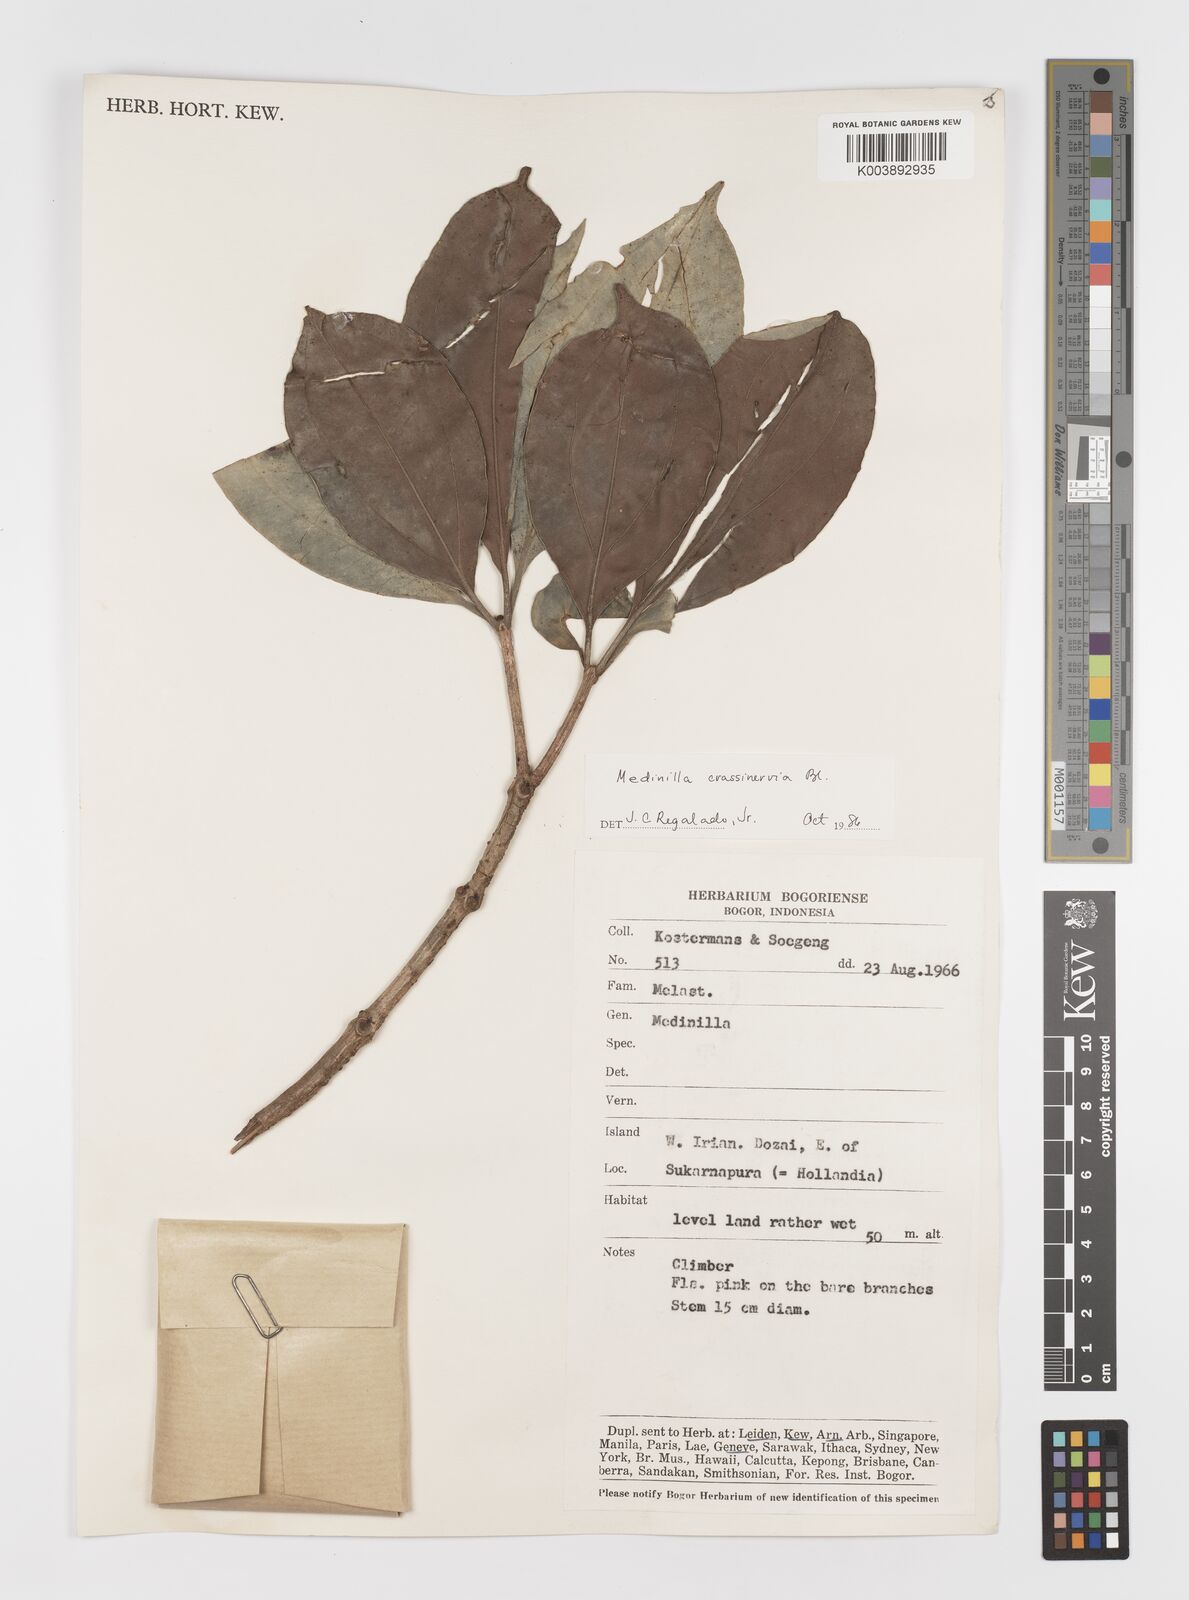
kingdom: Plantae
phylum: Tracheophyta
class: Magnoliopsida
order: Myrtales
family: Melastomataceae
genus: Medinilla
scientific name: Medinilla crassinervia
